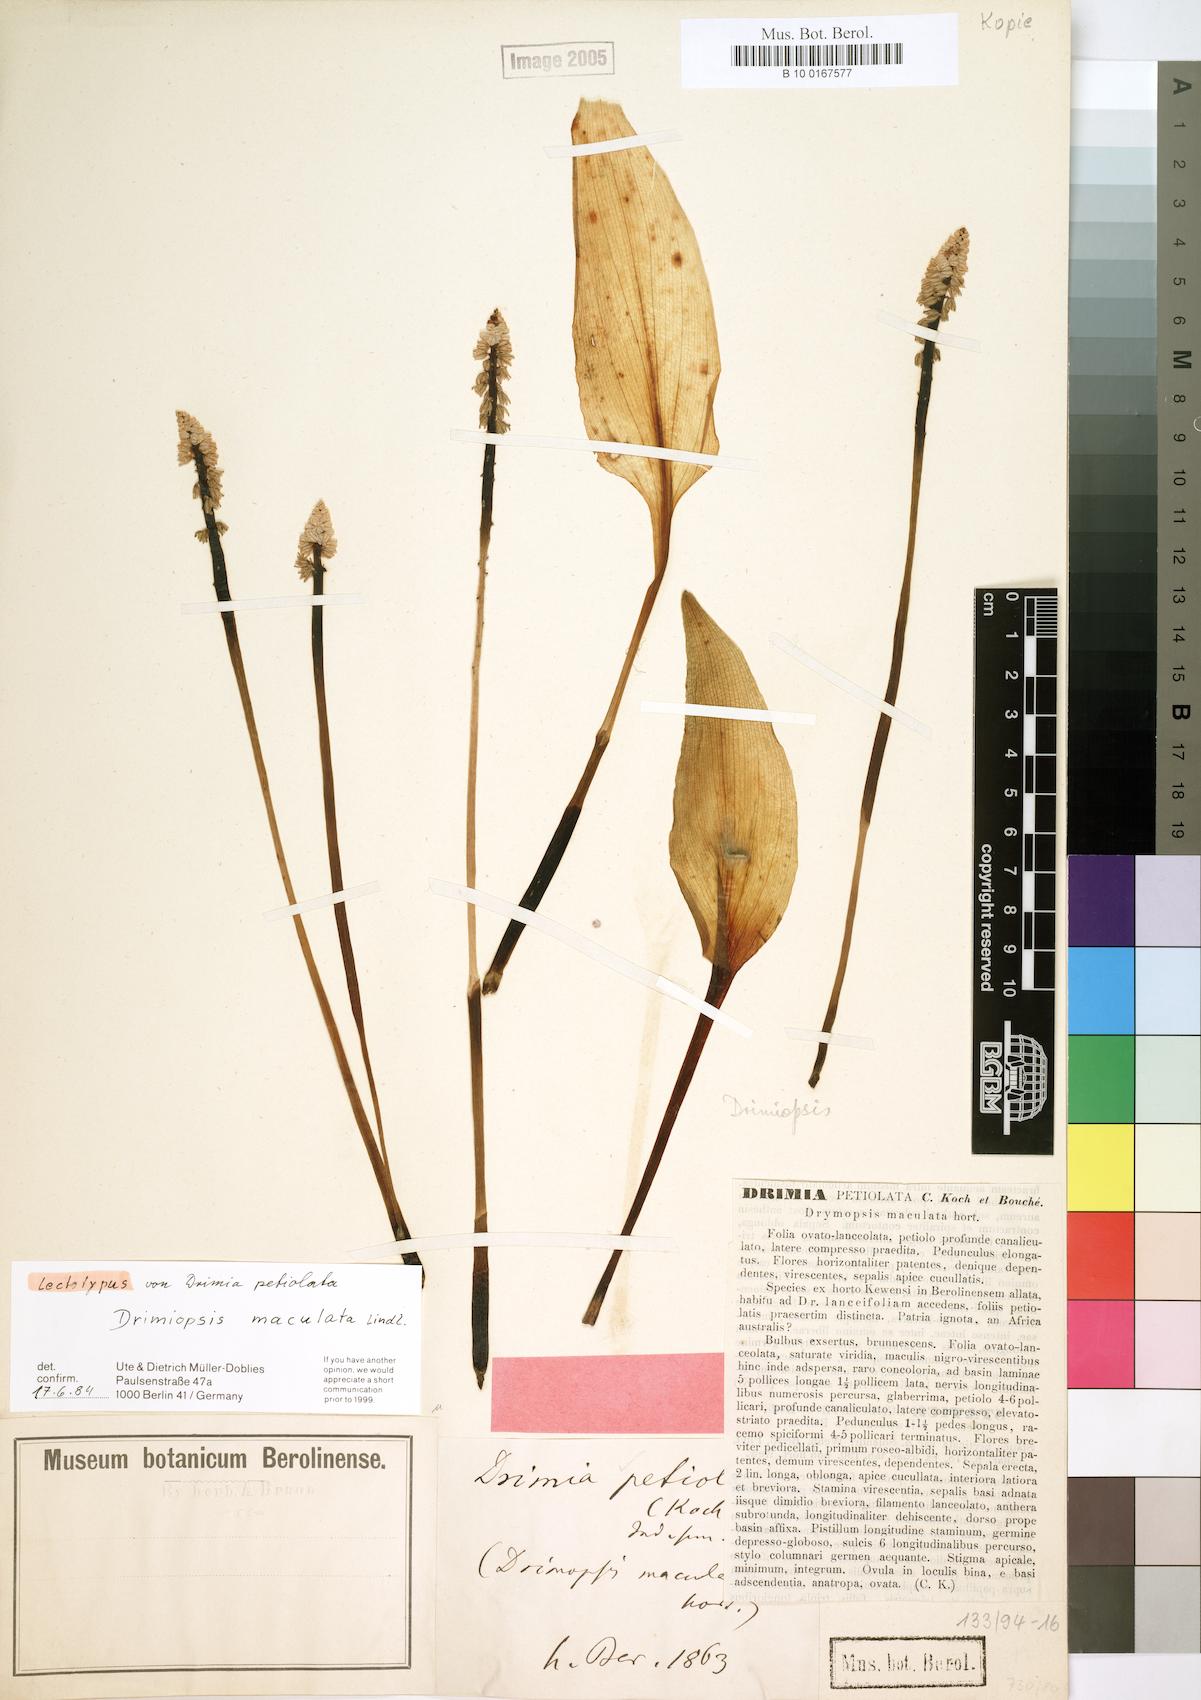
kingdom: Plantae
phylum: Tracheophyta
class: Liliopsida
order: Asparagales
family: Asparagaceae
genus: Drimiopsis
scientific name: Drimiopsis maculata
